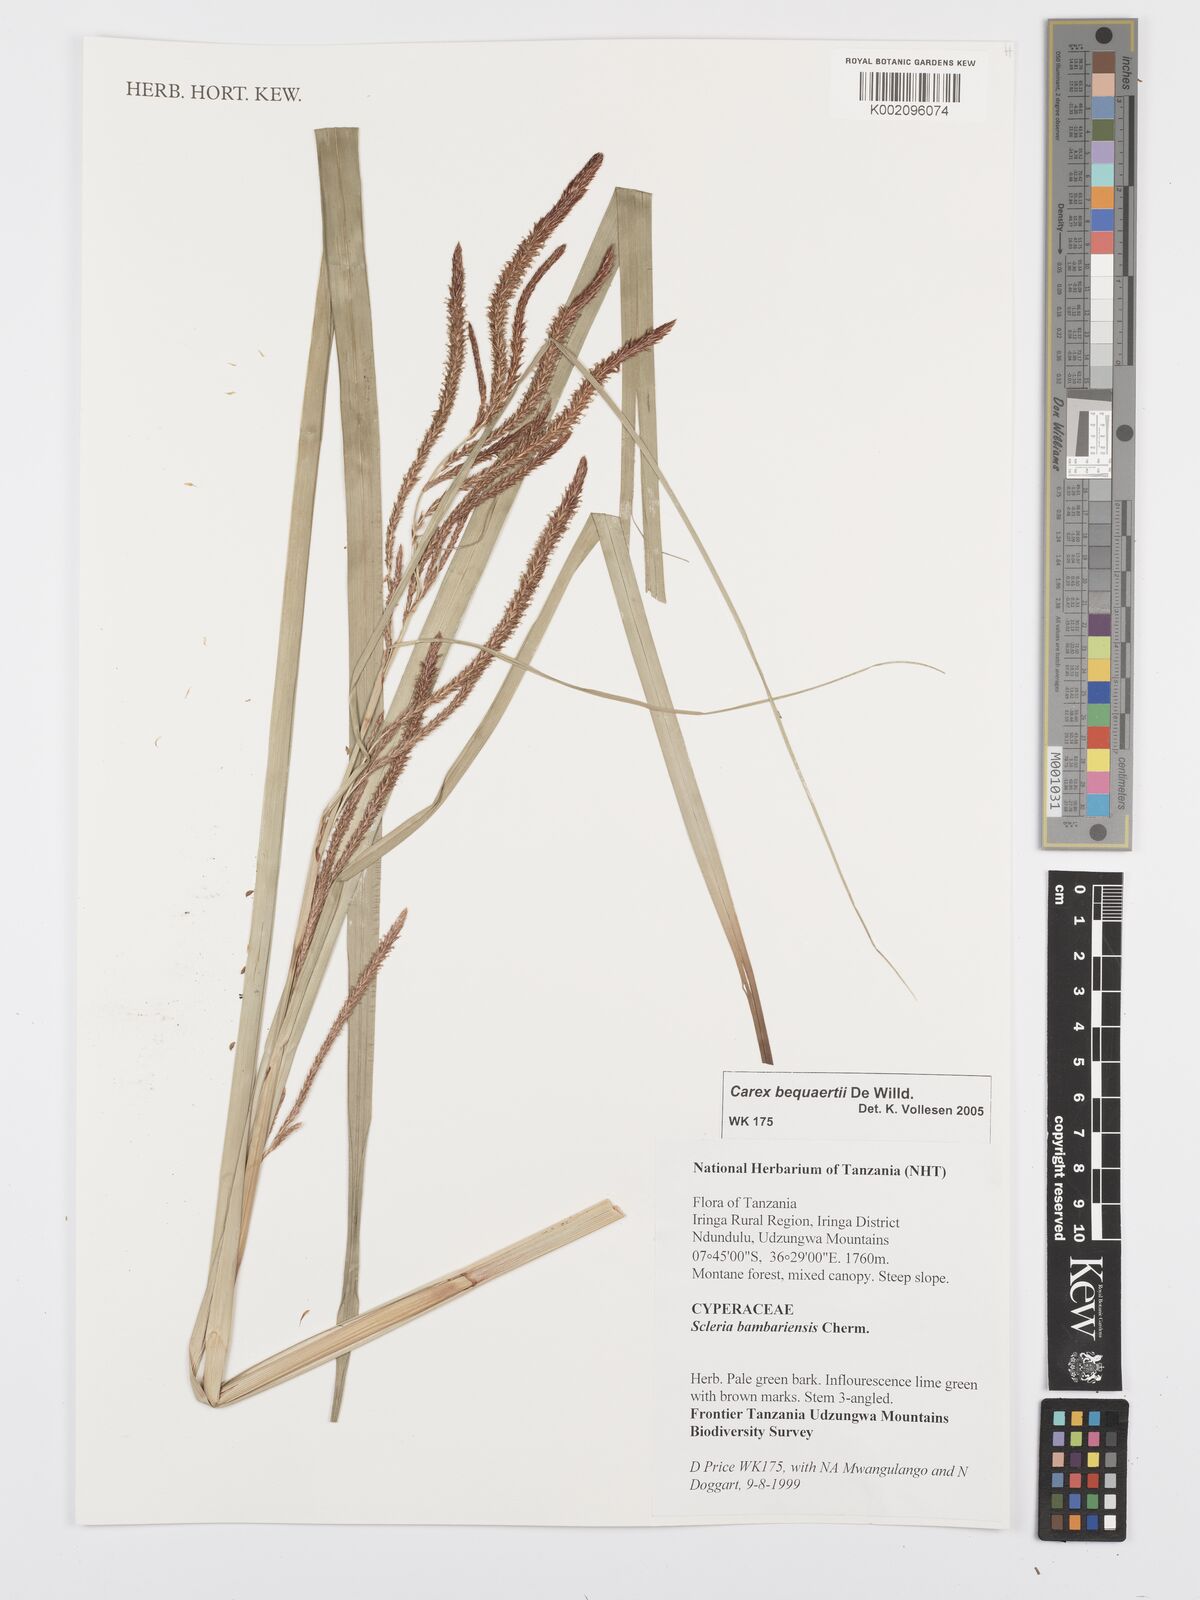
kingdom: Plantae
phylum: Tracheophyta
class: Liliopsida
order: Poales
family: Cyperaceae
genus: Carex
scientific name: Carex bequaertii
